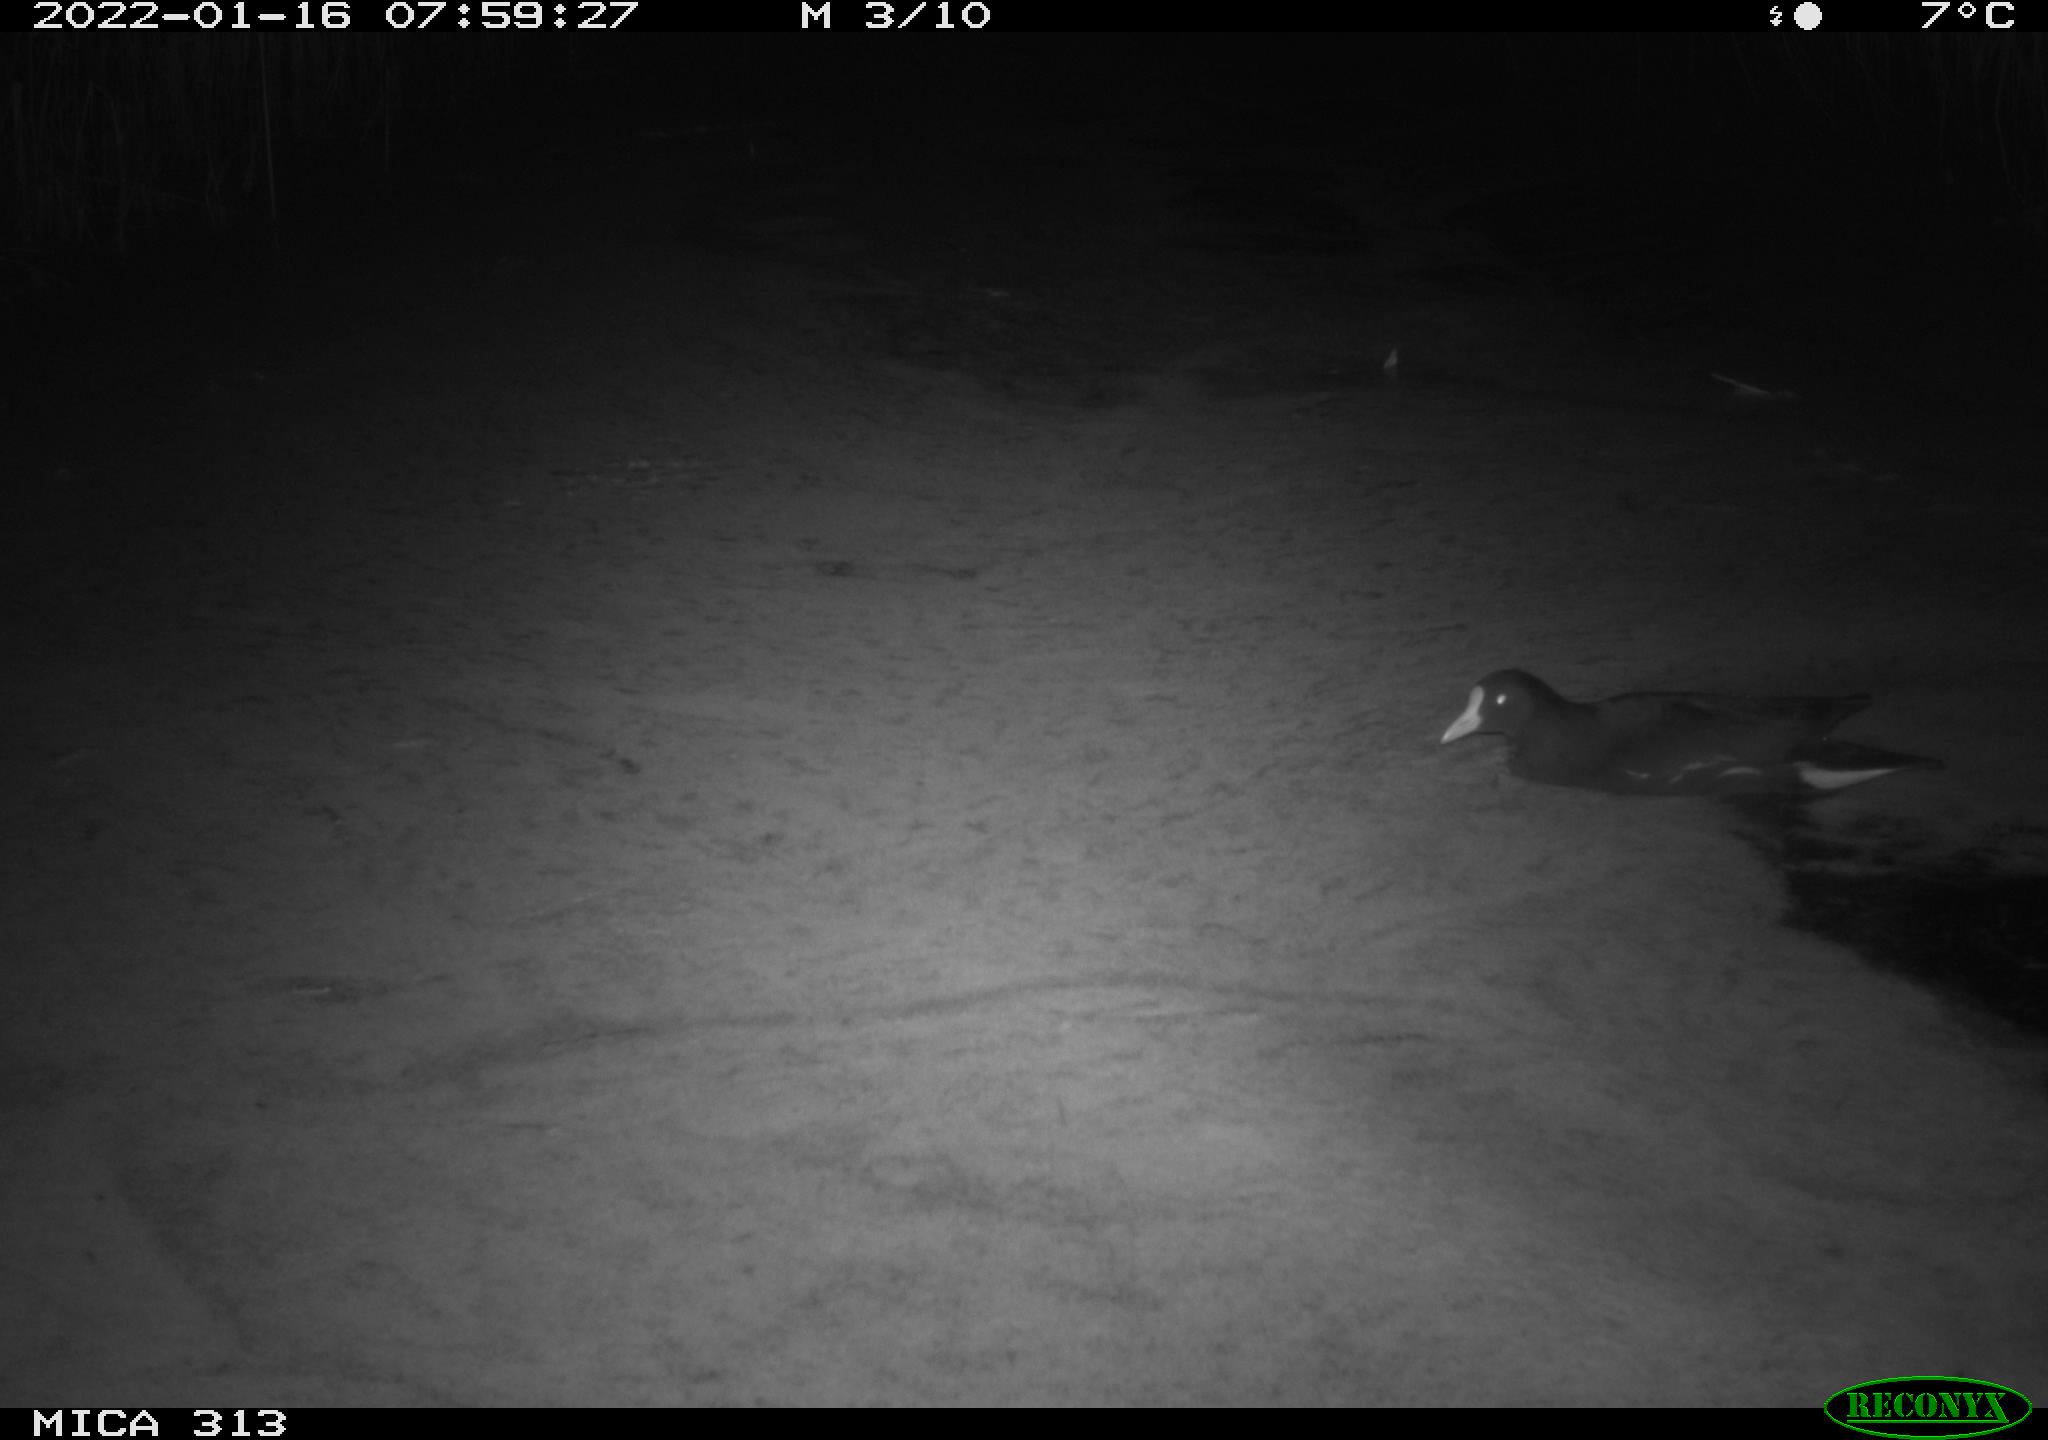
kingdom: Animalia
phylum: Chordata
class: Aves
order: Gruiformes
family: Rallidae
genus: Gallinula
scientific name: Gallinula chloropus
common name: Common moorhen
